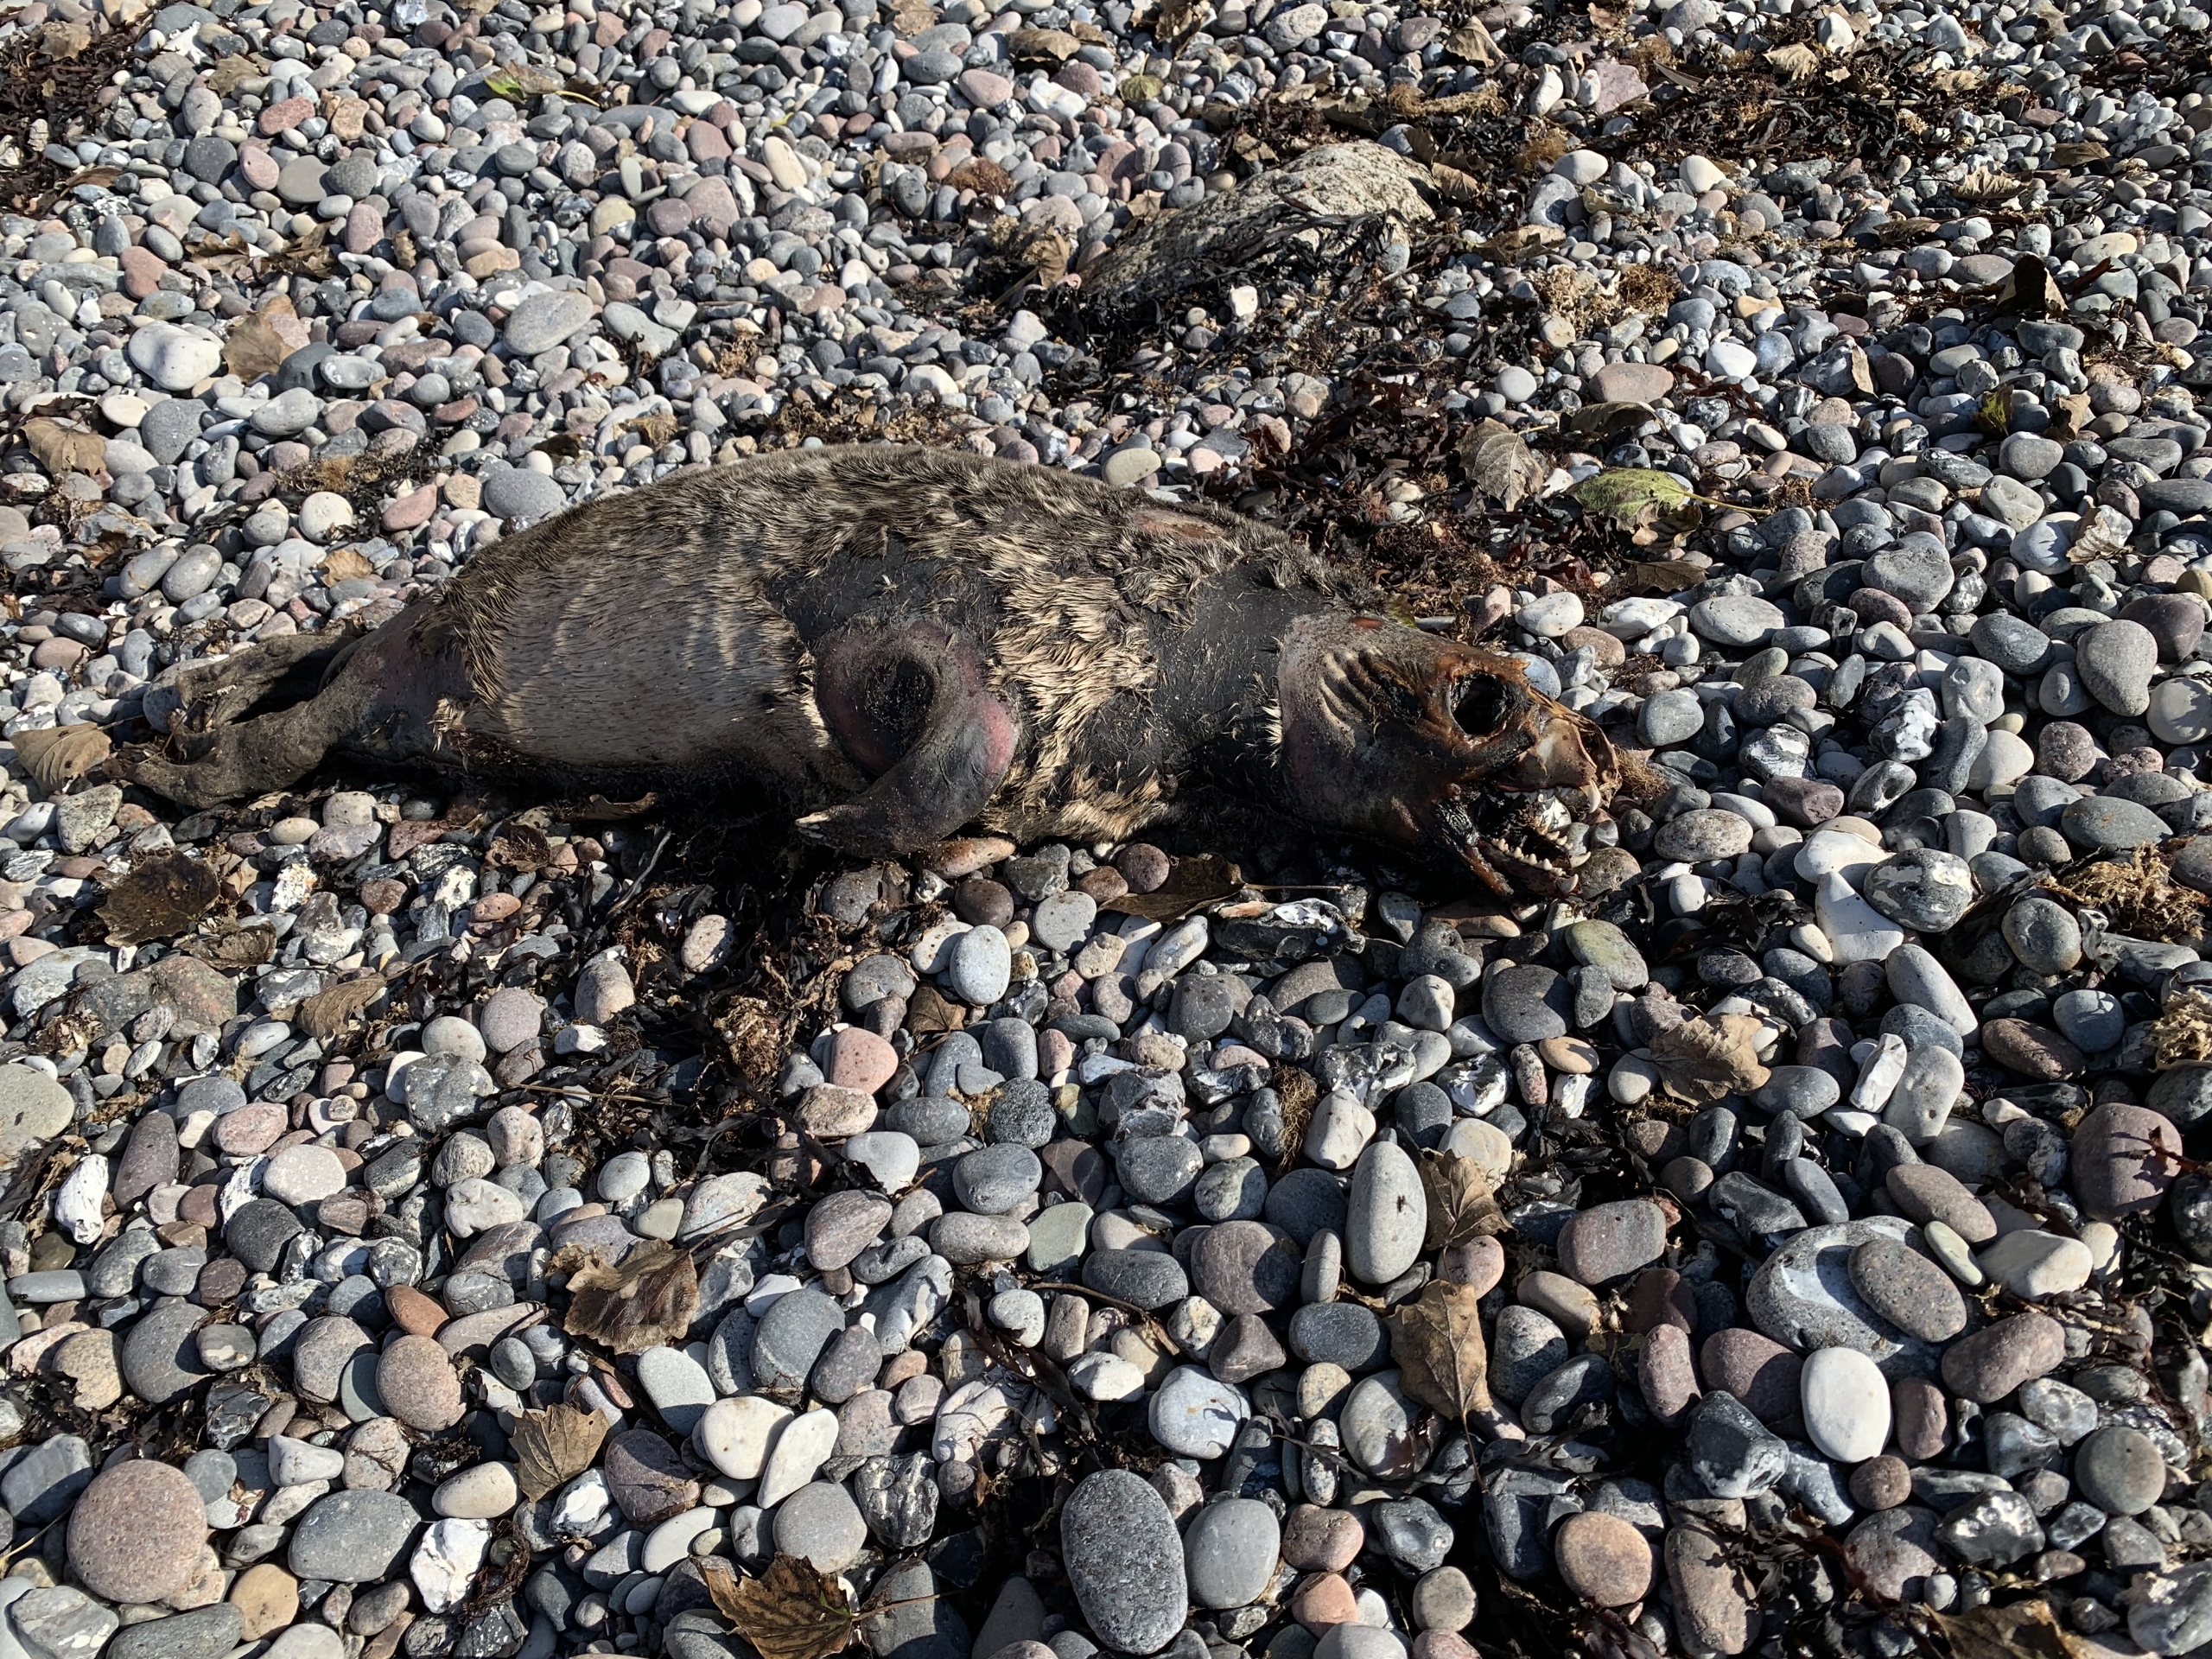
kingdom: Animalia
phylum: Chordata
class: Mammalia
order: Carnivora
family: Phocidae
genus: Phoca
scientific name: Phoca vitulina
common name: Spættet sæl
